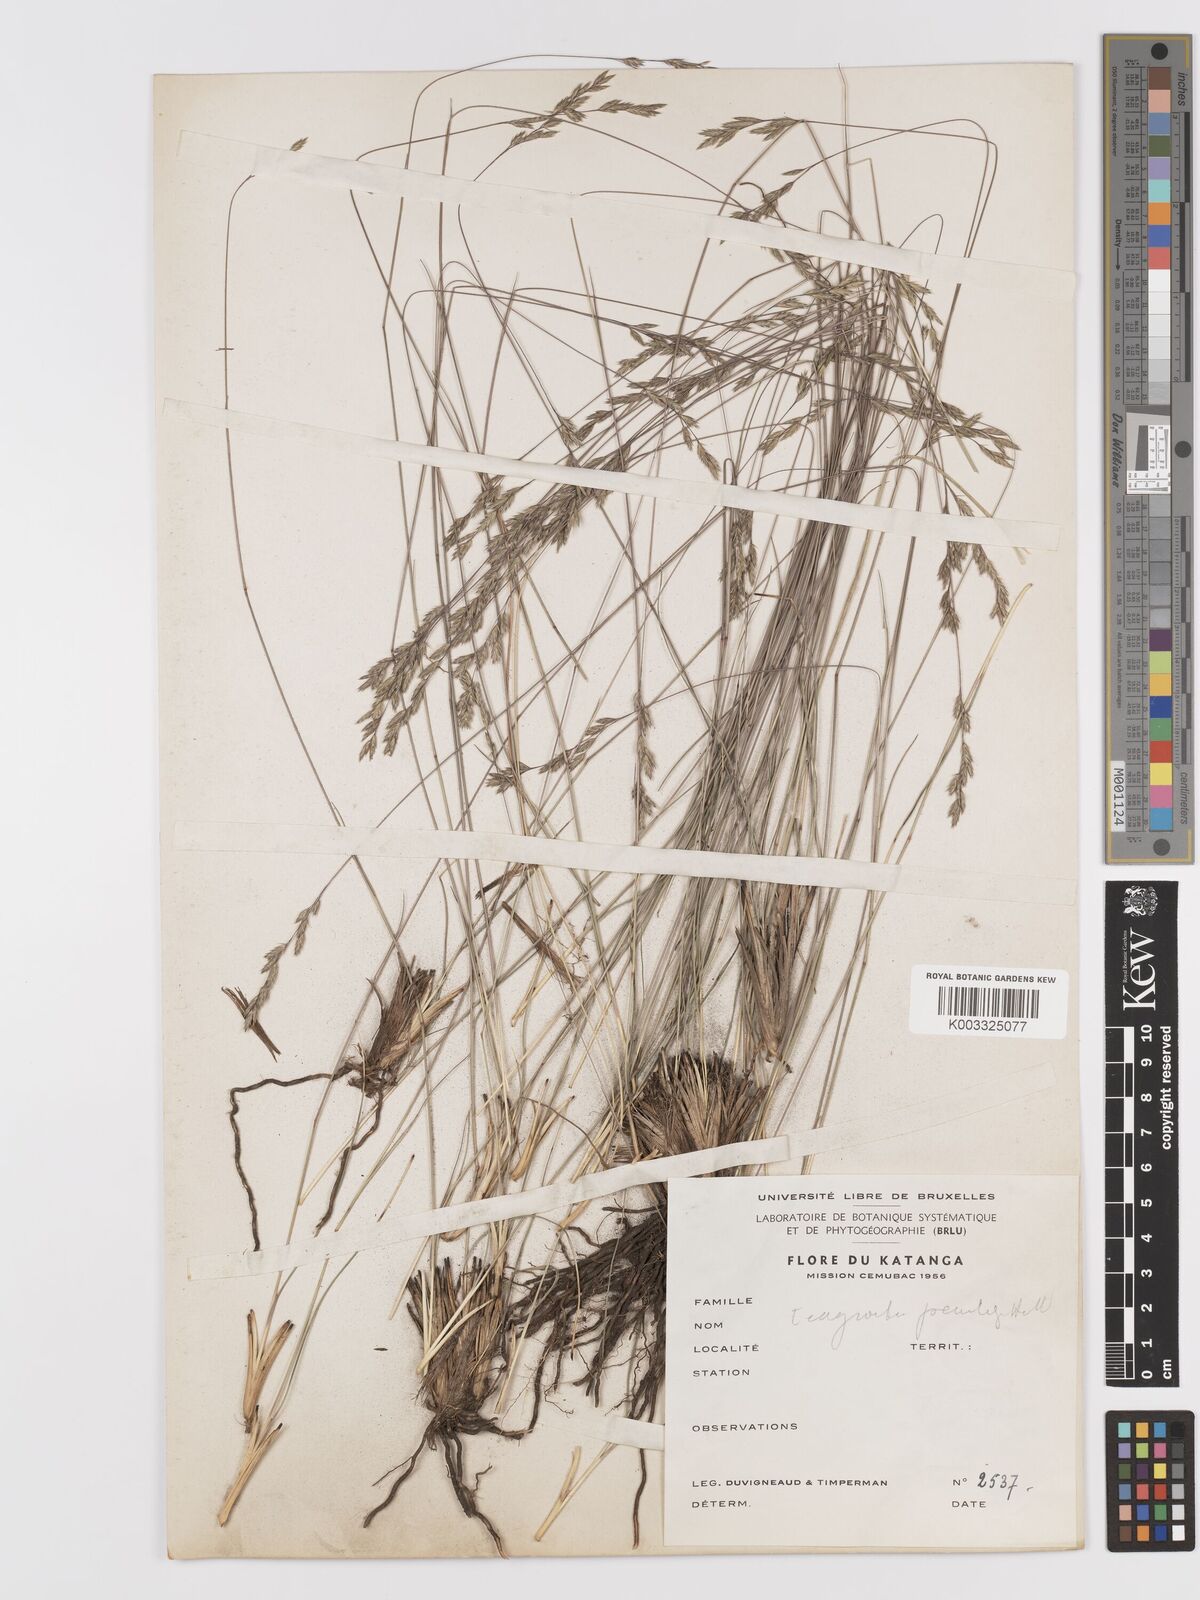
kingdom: Plantae
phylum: Tracheophyta
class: Liliopsida
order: Poales
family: Poaceae
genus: Eragrostis
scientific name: Eragrostis
